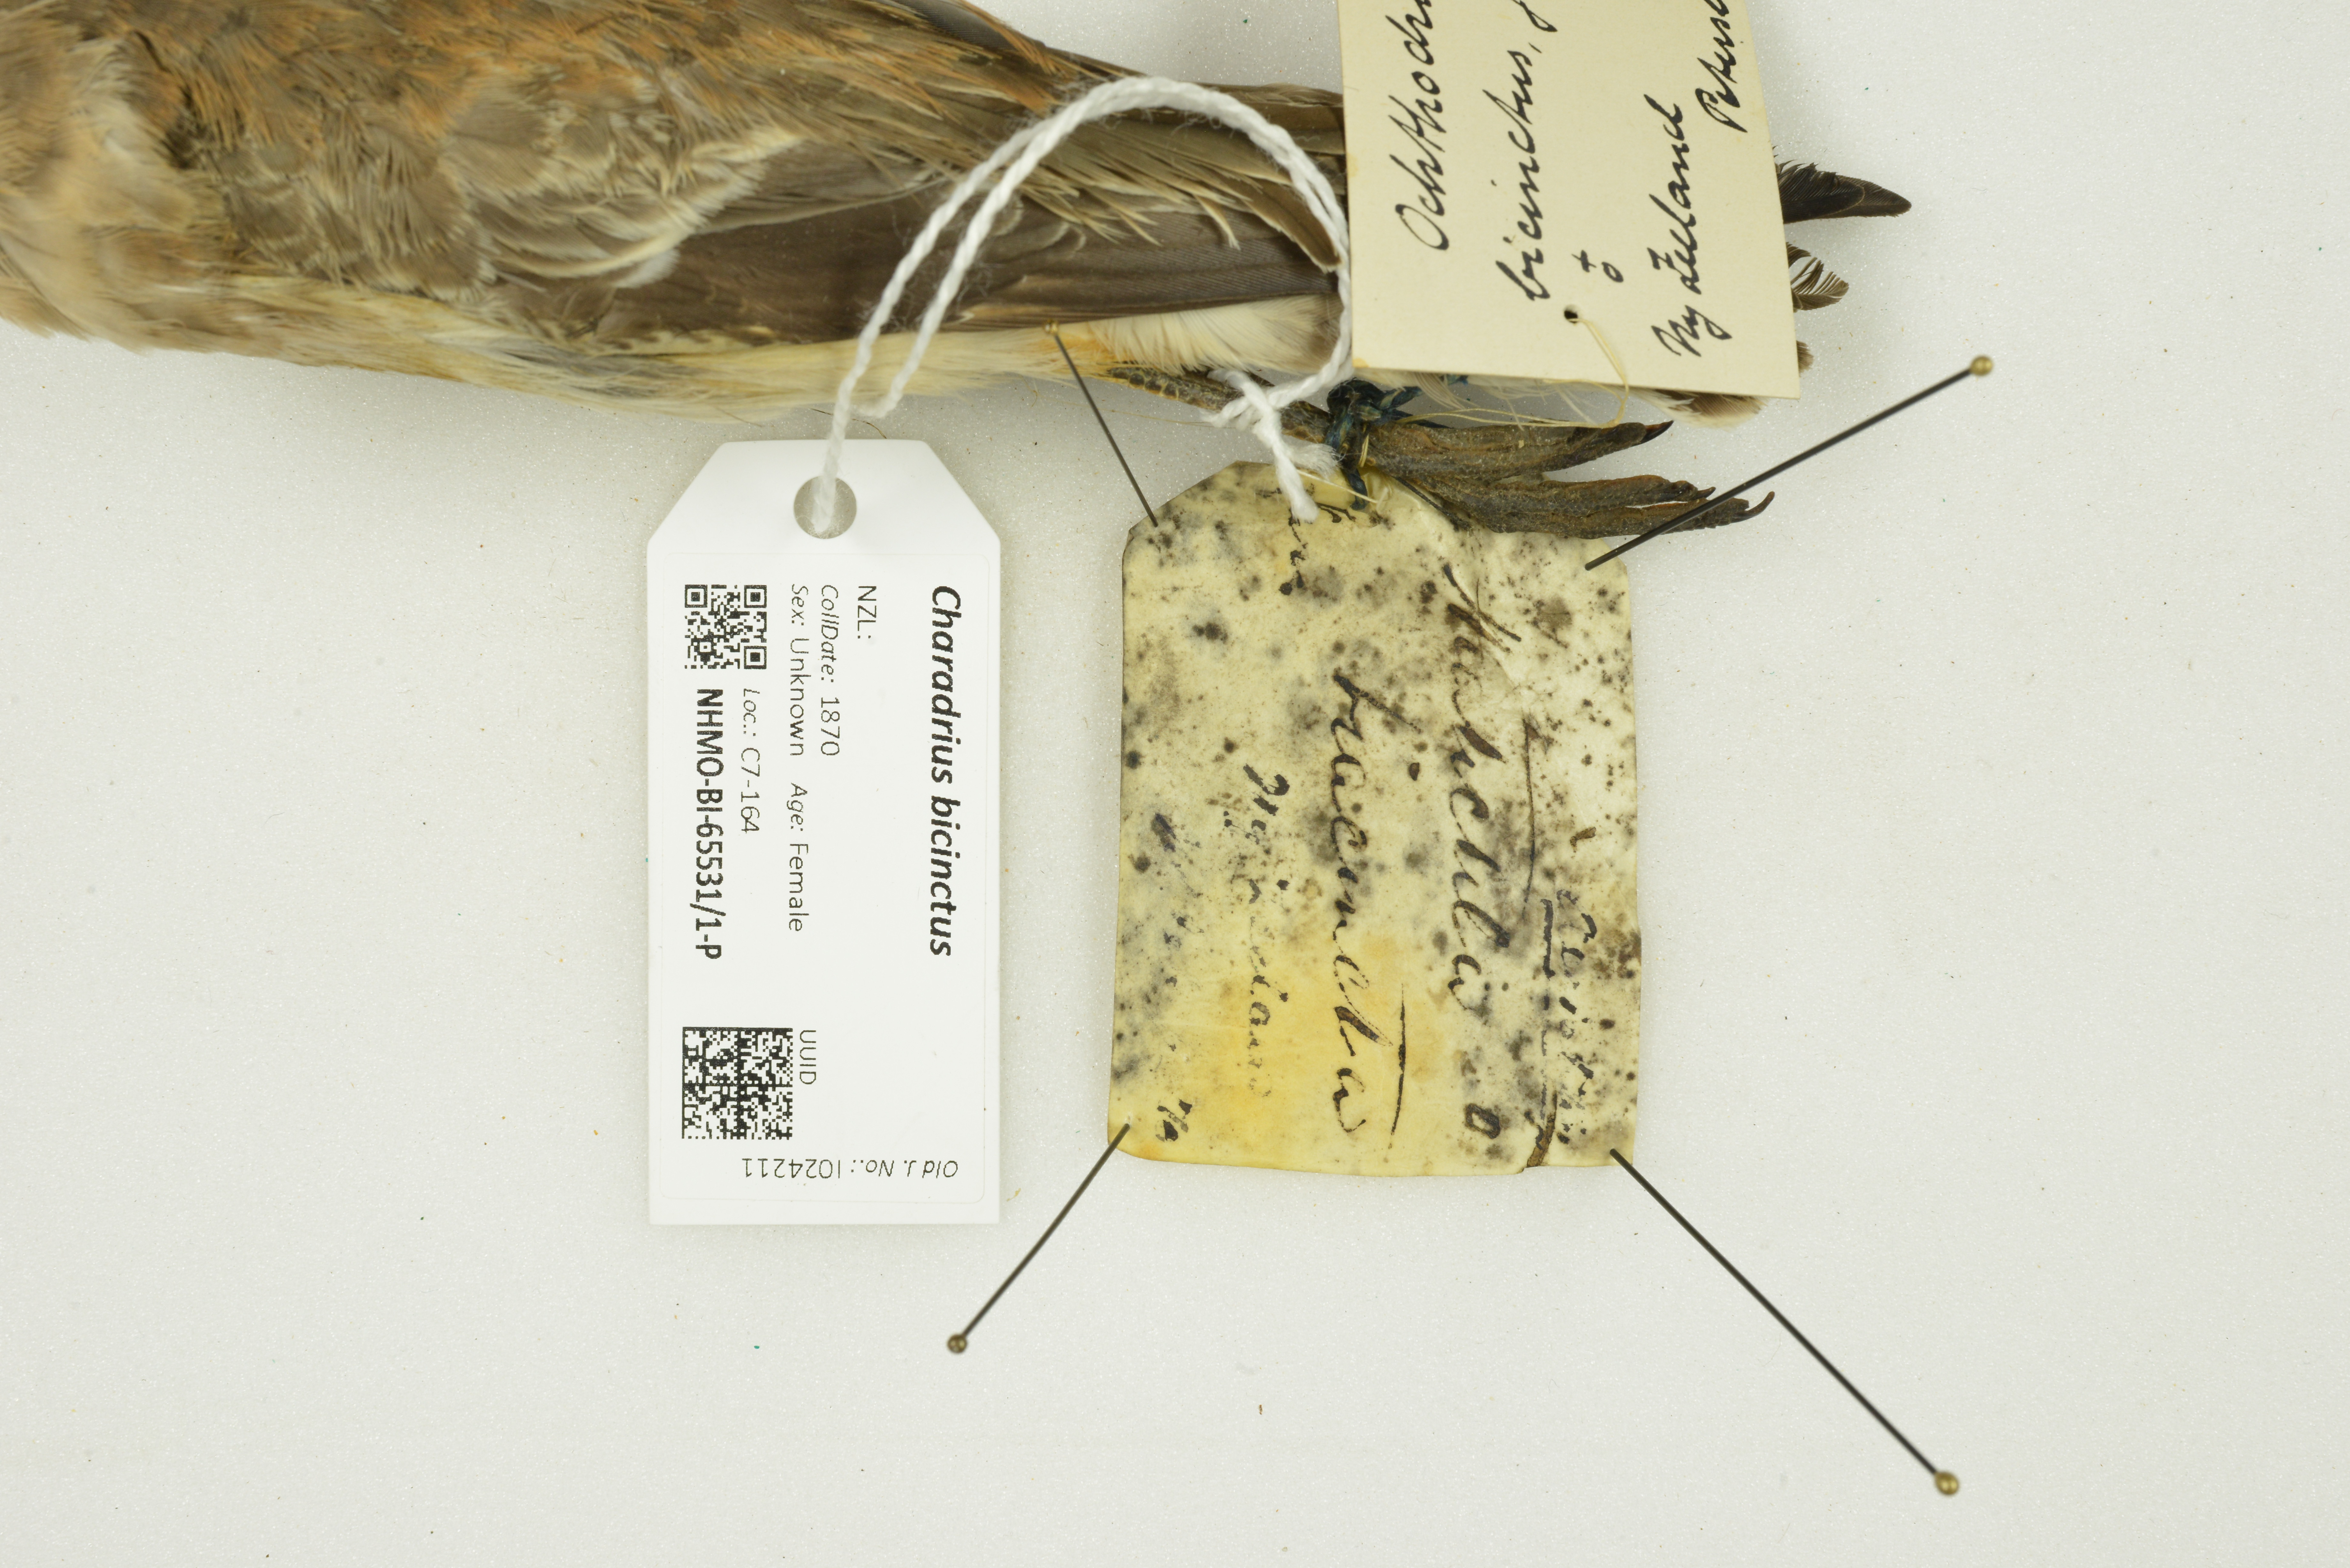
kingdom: Animalia
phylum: Chordata
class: Aves
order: Charadriiformes
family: Charadriidae
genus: Charadrius
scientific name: Charadrius bicinctus
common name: Double-banded plover
